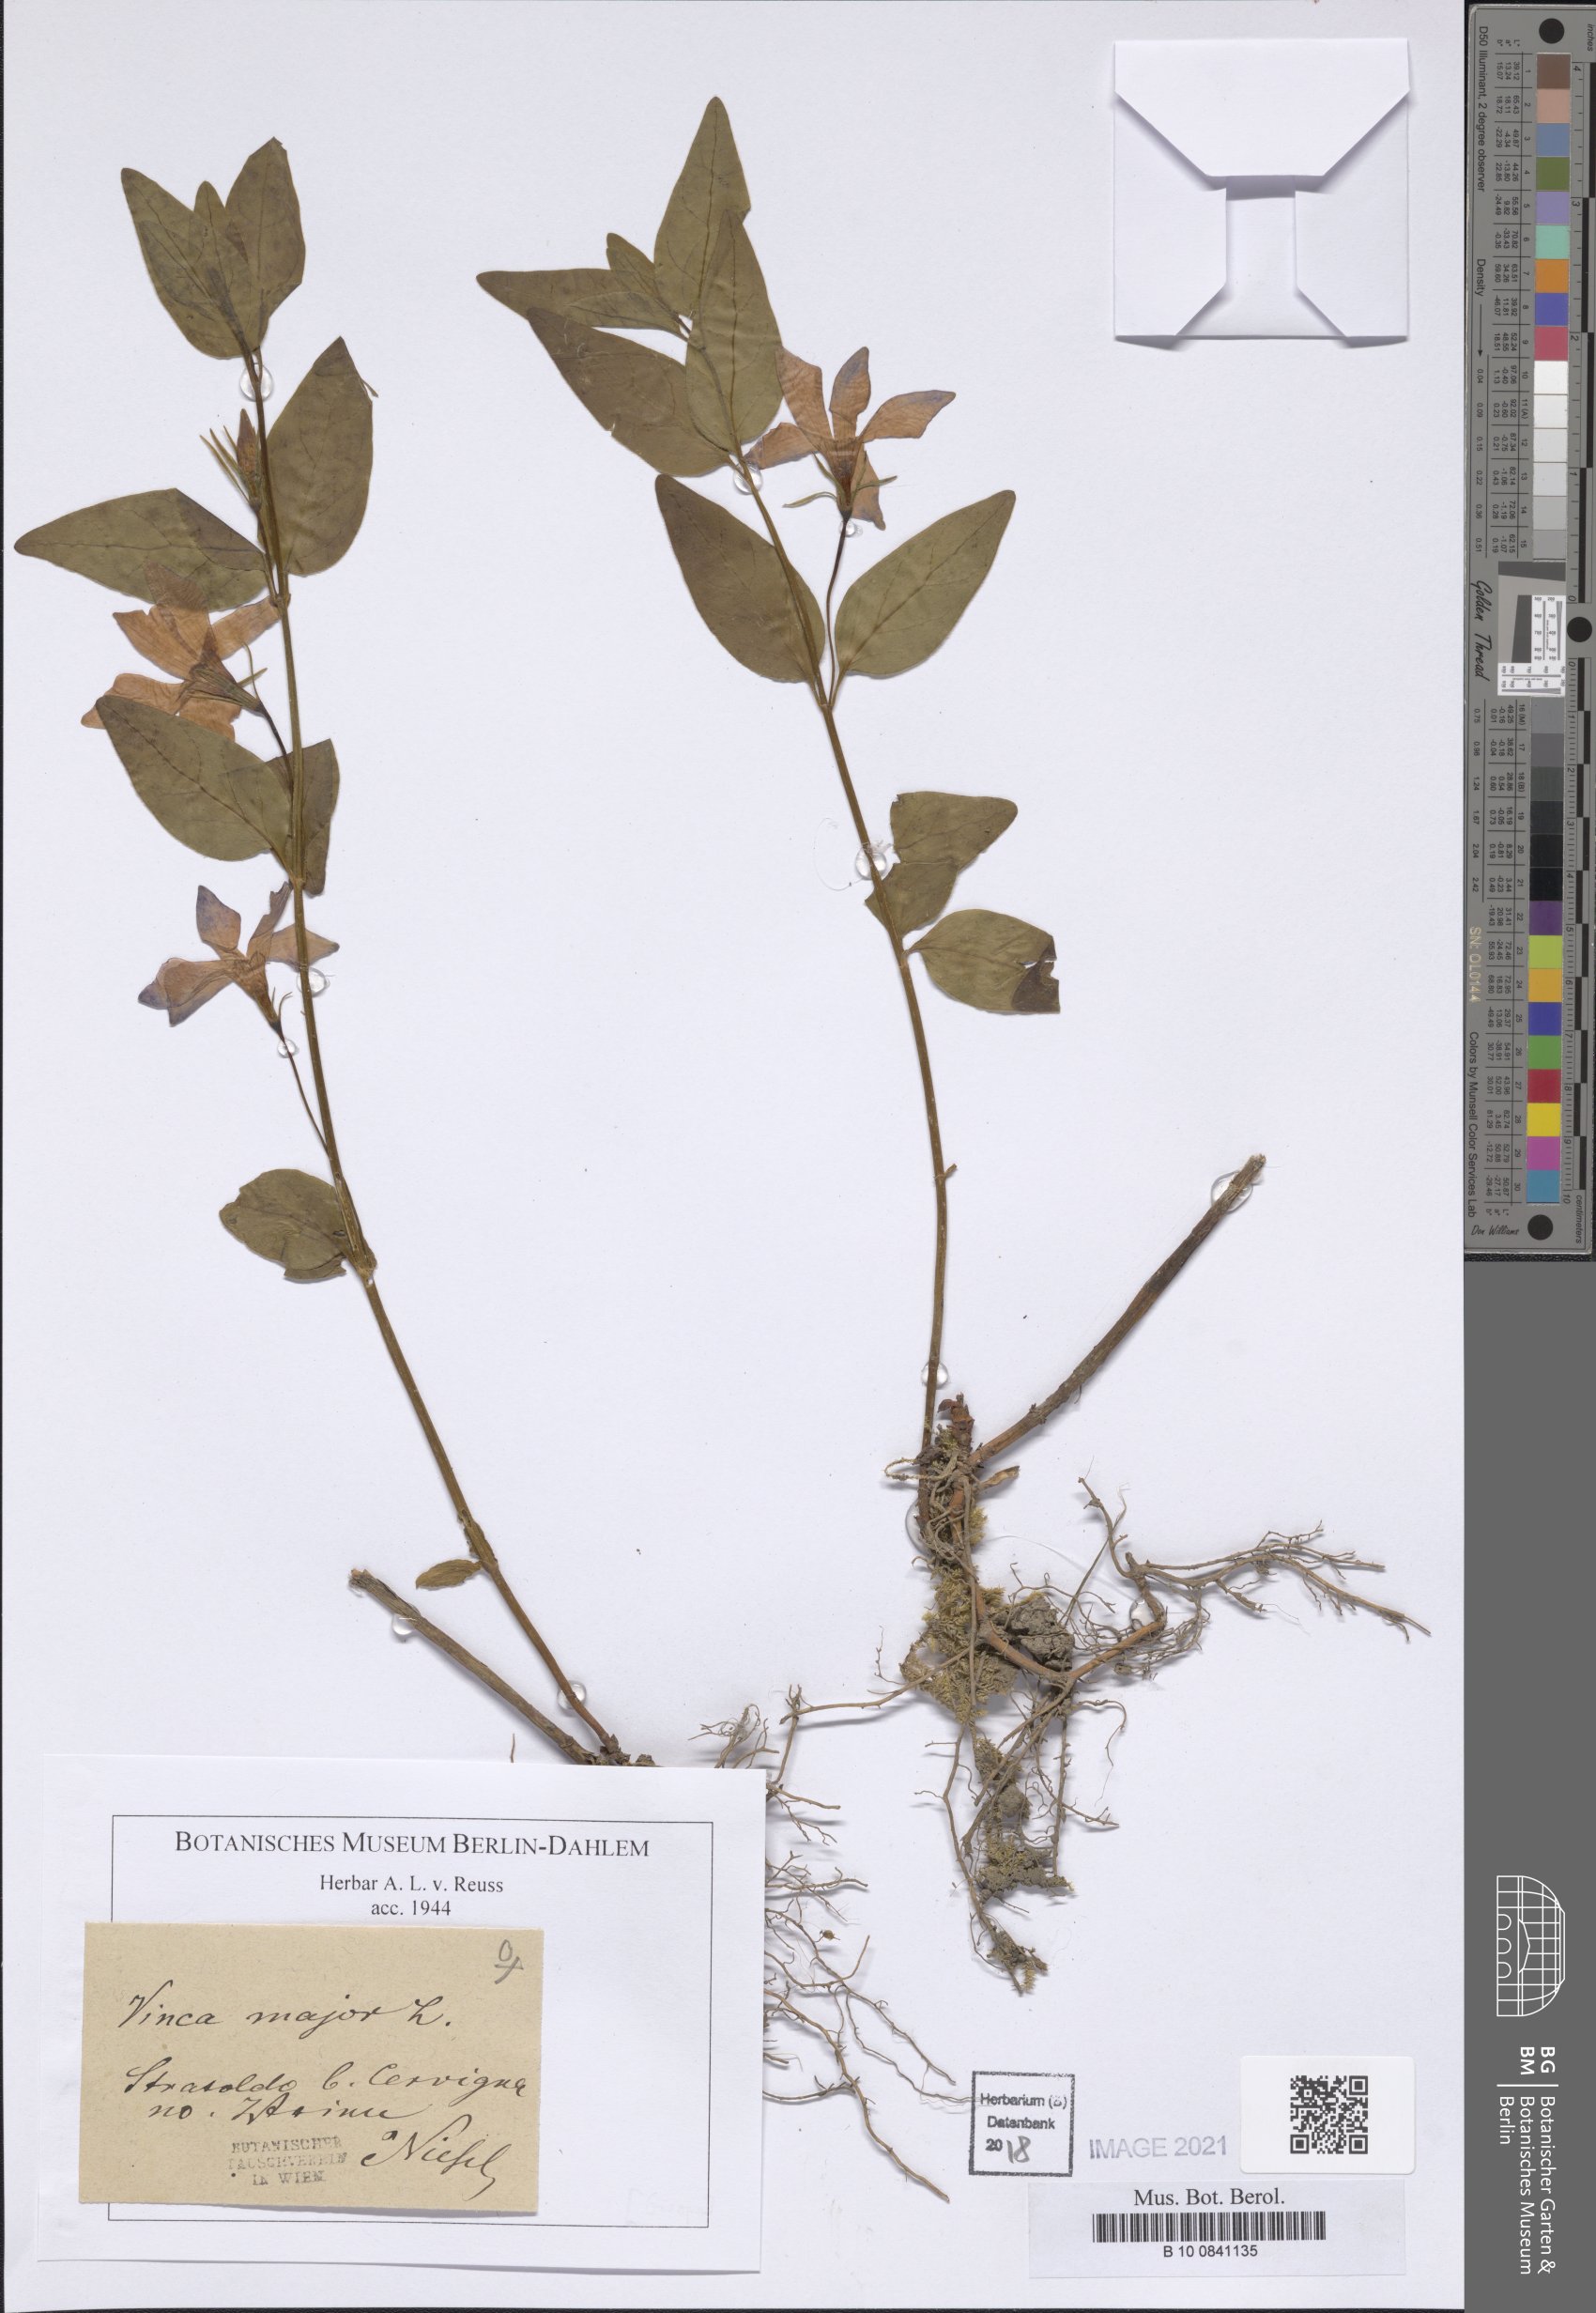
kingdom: Plantae
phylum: Tracheophyta
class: Magnoliopsida
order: Gentianales
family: Apocynaceae
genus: Vinca
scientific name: Vinca major
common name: Greater periwinkle
